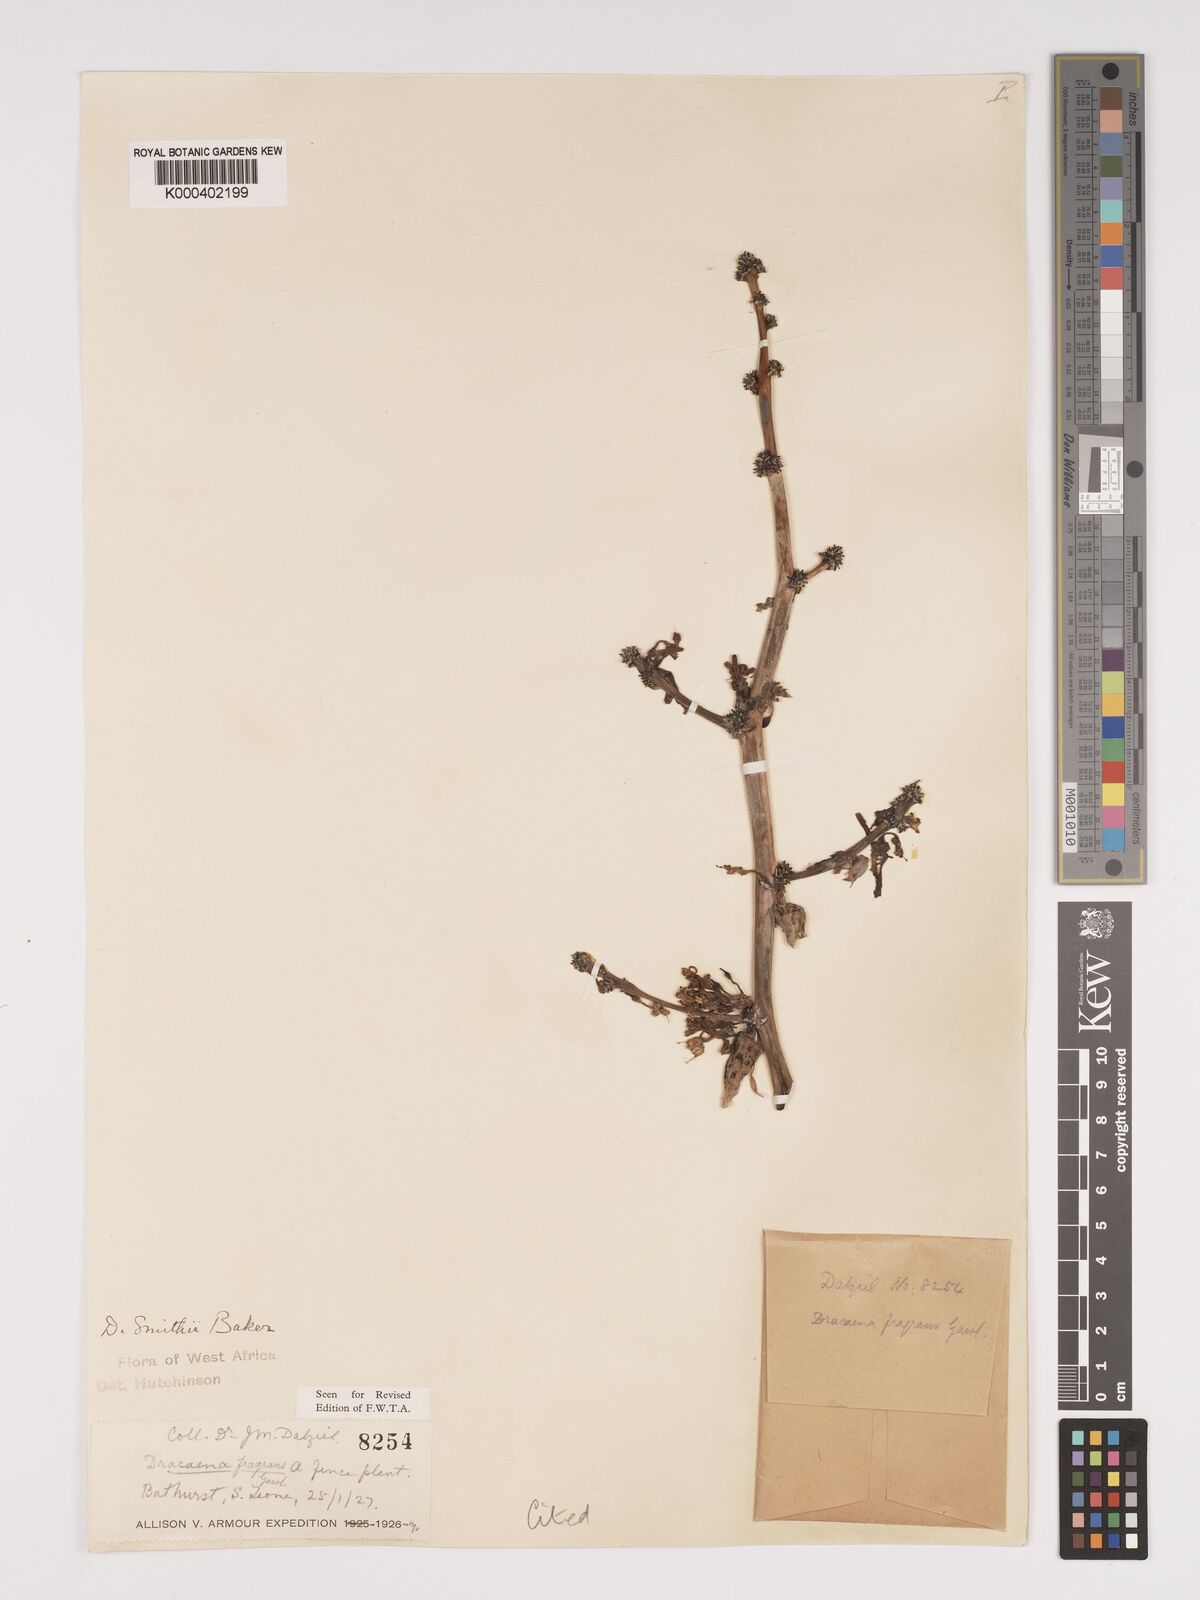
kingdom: Plantae
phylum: Tracheophyta
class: Liliopsida
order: Asparagales
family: Asparagaceae
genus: Dracaena
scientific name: Dracaena fragrans
